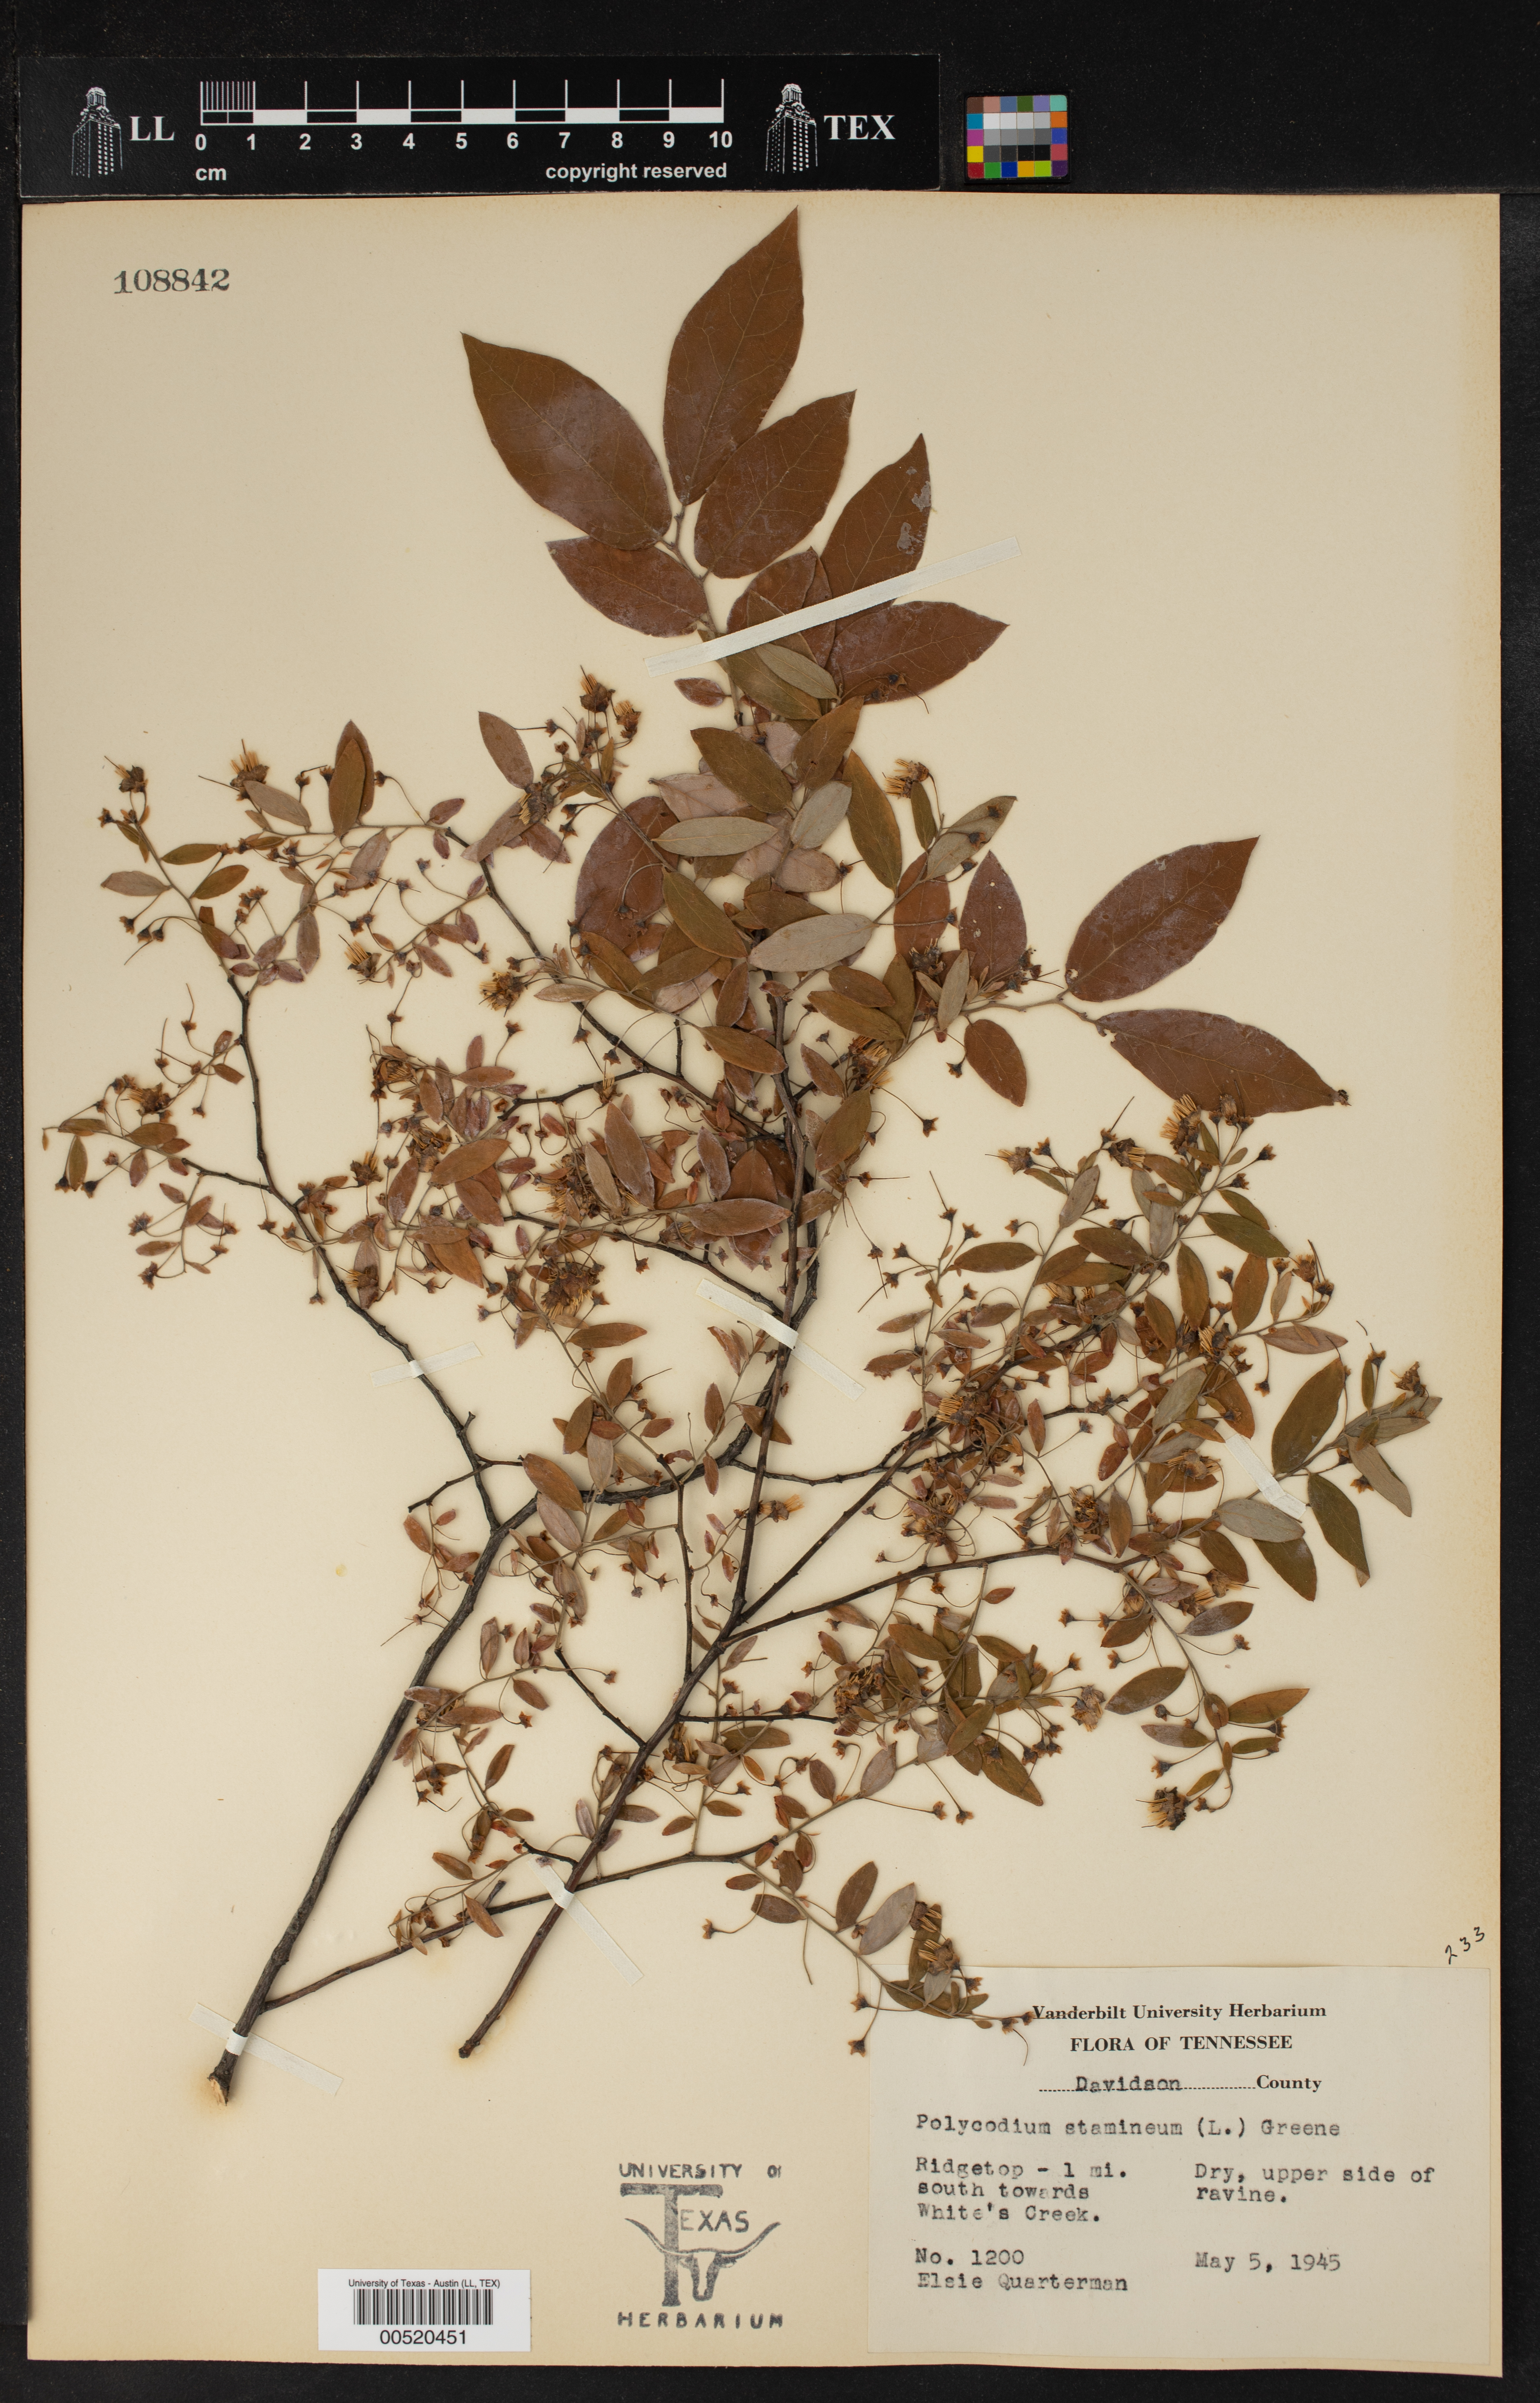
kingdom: Plantae
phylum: Tracheophyta
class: Magnoliopsida
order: Ericales
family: Ericaceae
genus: Vaccinium
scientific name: Vaccinium stamineum
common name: Deerberry
